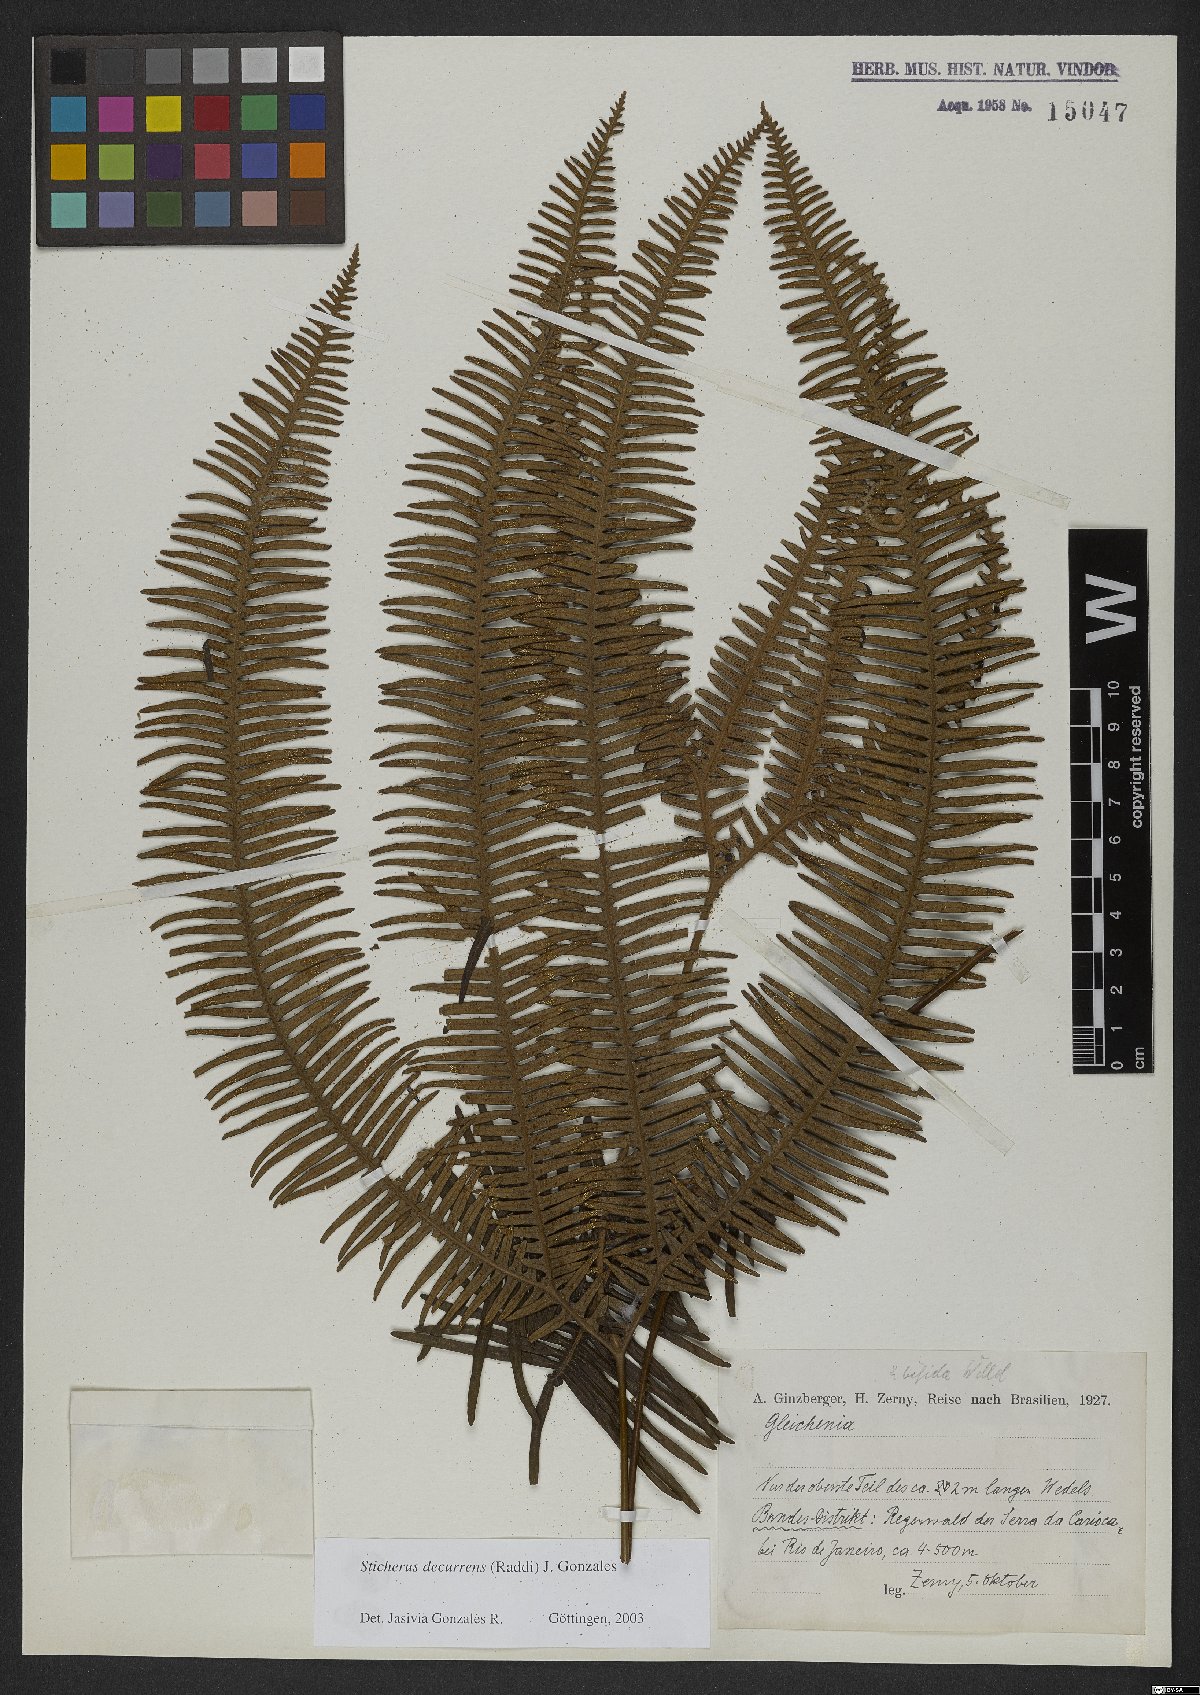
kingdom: Plantae
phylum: Tracheophyta
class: Polypodiopsida
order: Gleicheniales
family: Gleicheniaceae
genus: Sticherus
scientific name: Sticherus decurrens
